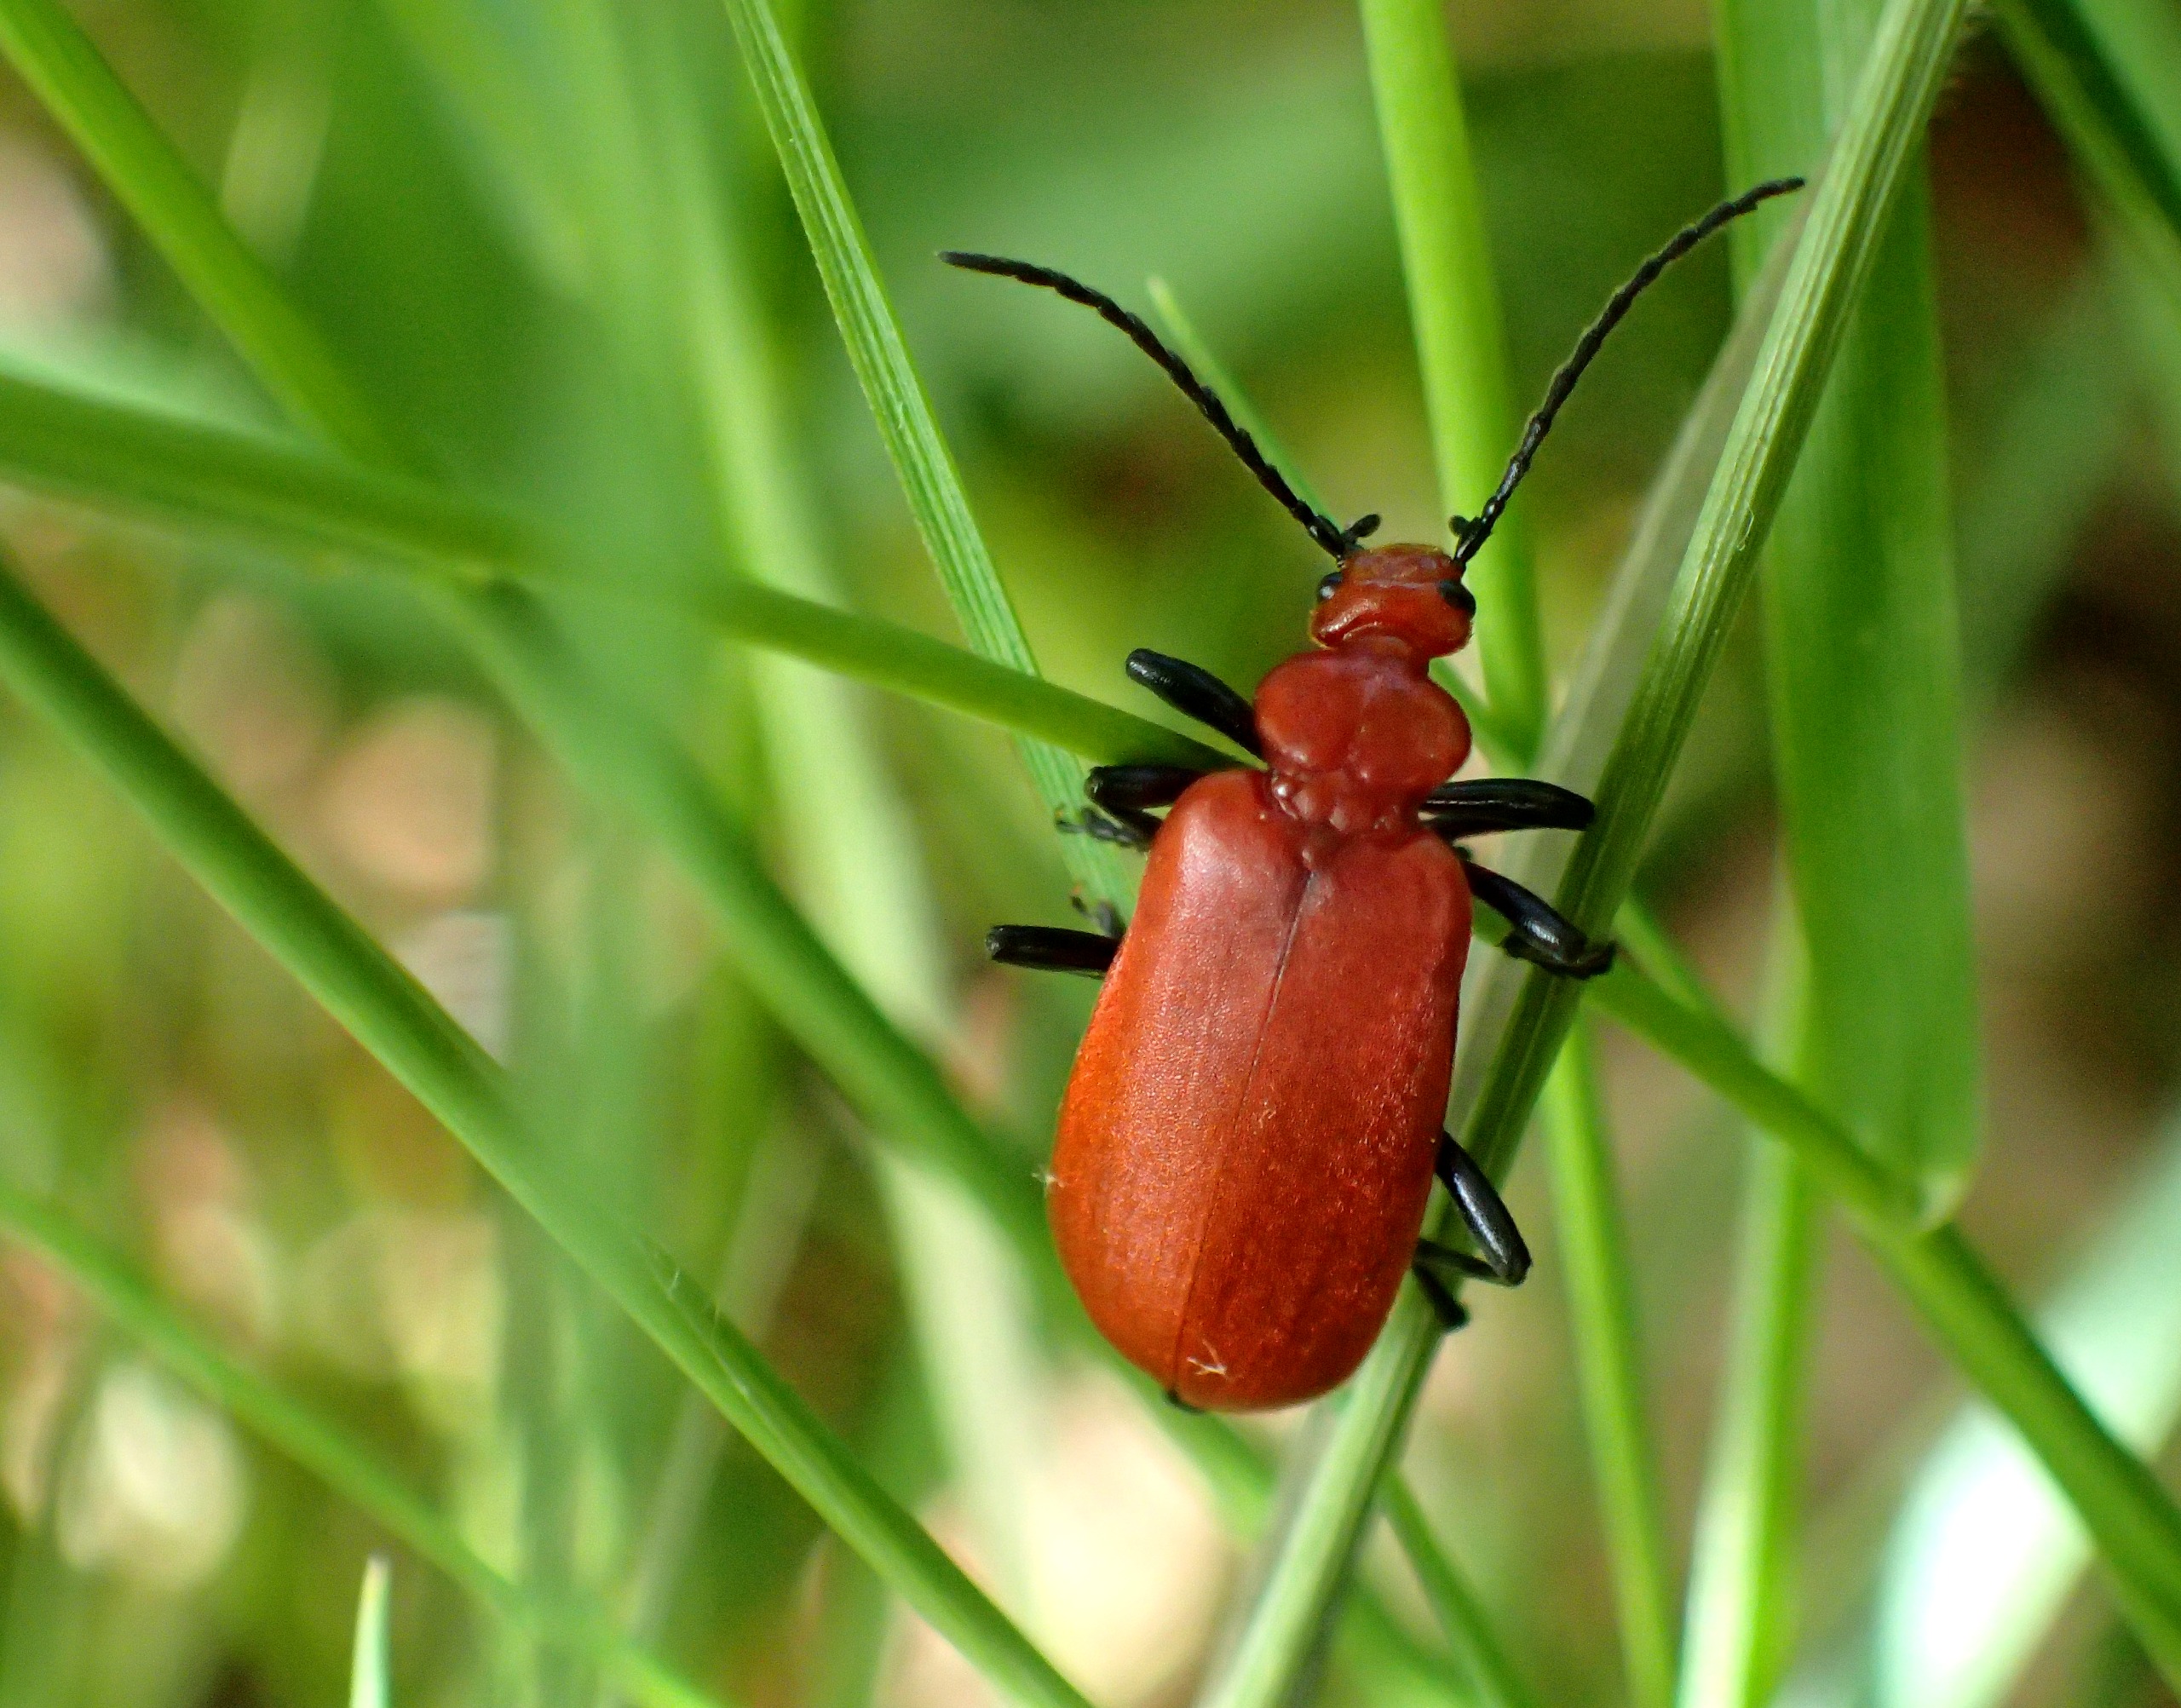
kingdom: Animalia
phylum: Arthropoda
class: Insecta
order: Coleoptera
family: Pyrochroidae
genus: Pyrochroa
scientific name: Pyrochroa serraticornis
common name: Rødhovedet kardinalbille
